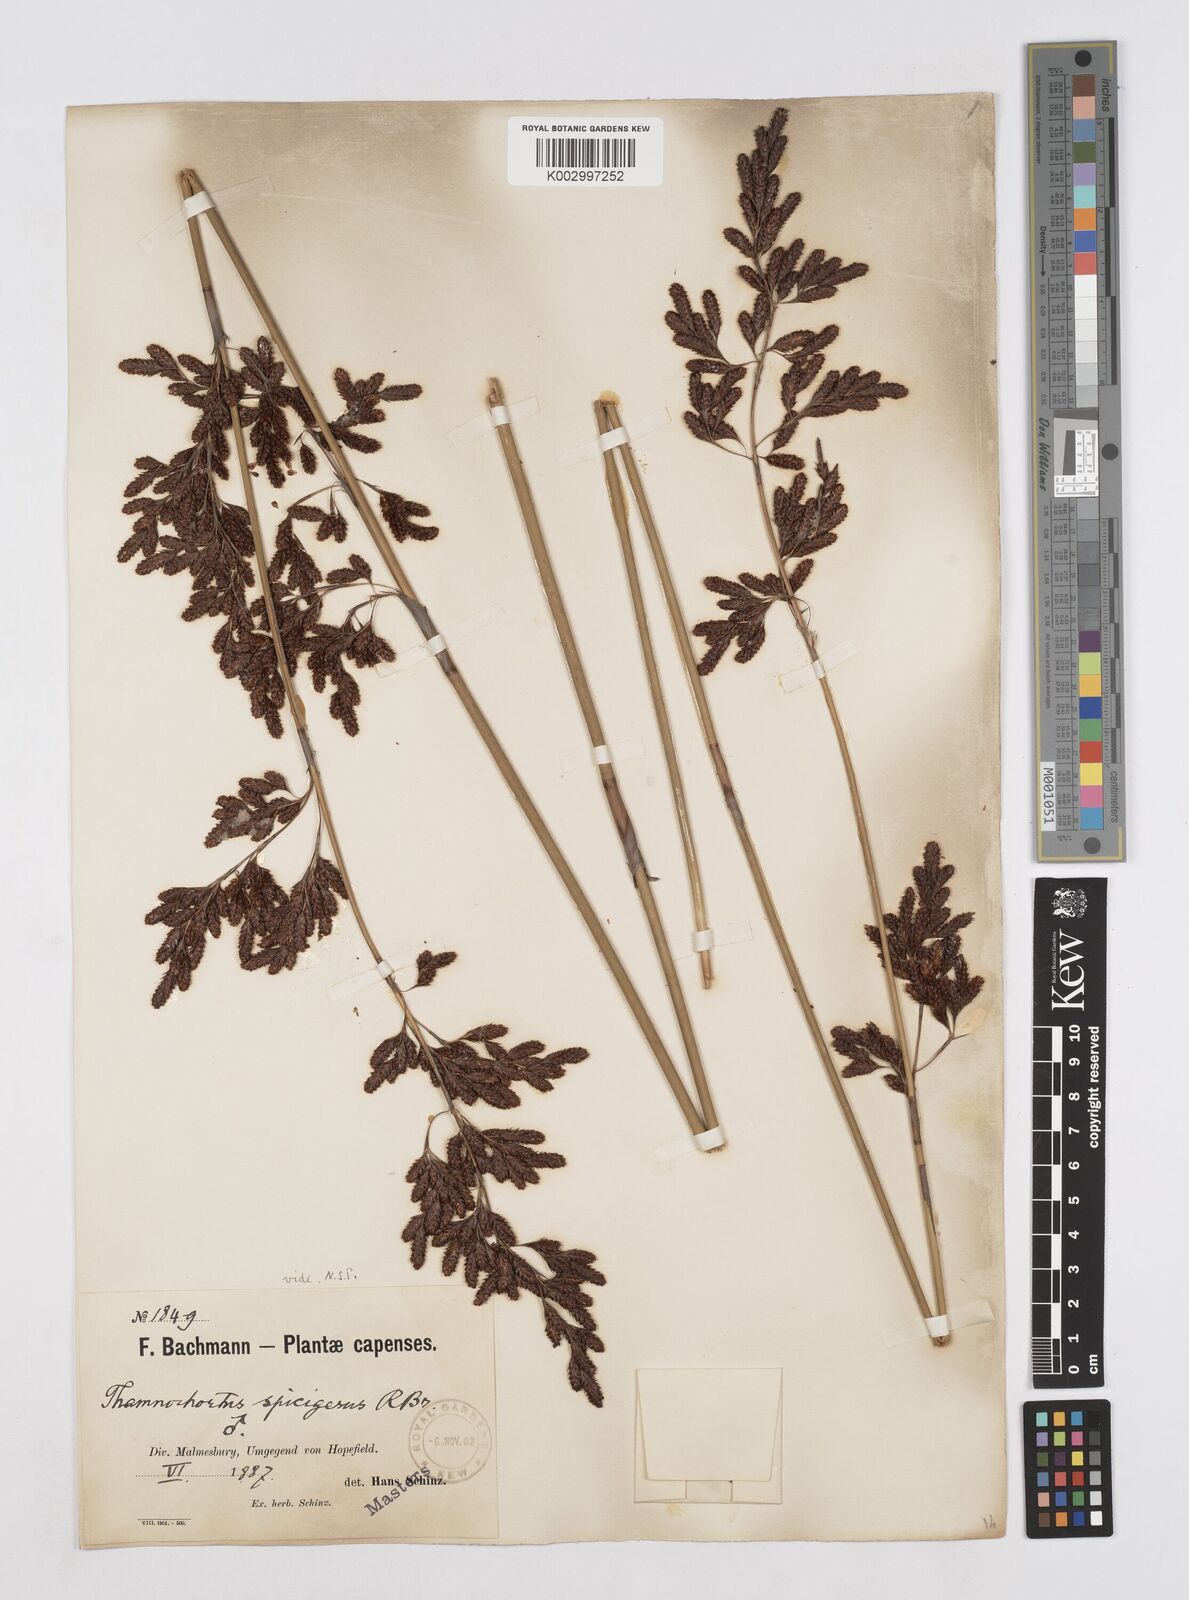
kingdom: Plantae
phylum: Tracheophyta
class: Liliopsida
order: Poales
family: Restionaceae
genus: Thamnochortus
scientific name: Thamnochortus spicigerus
